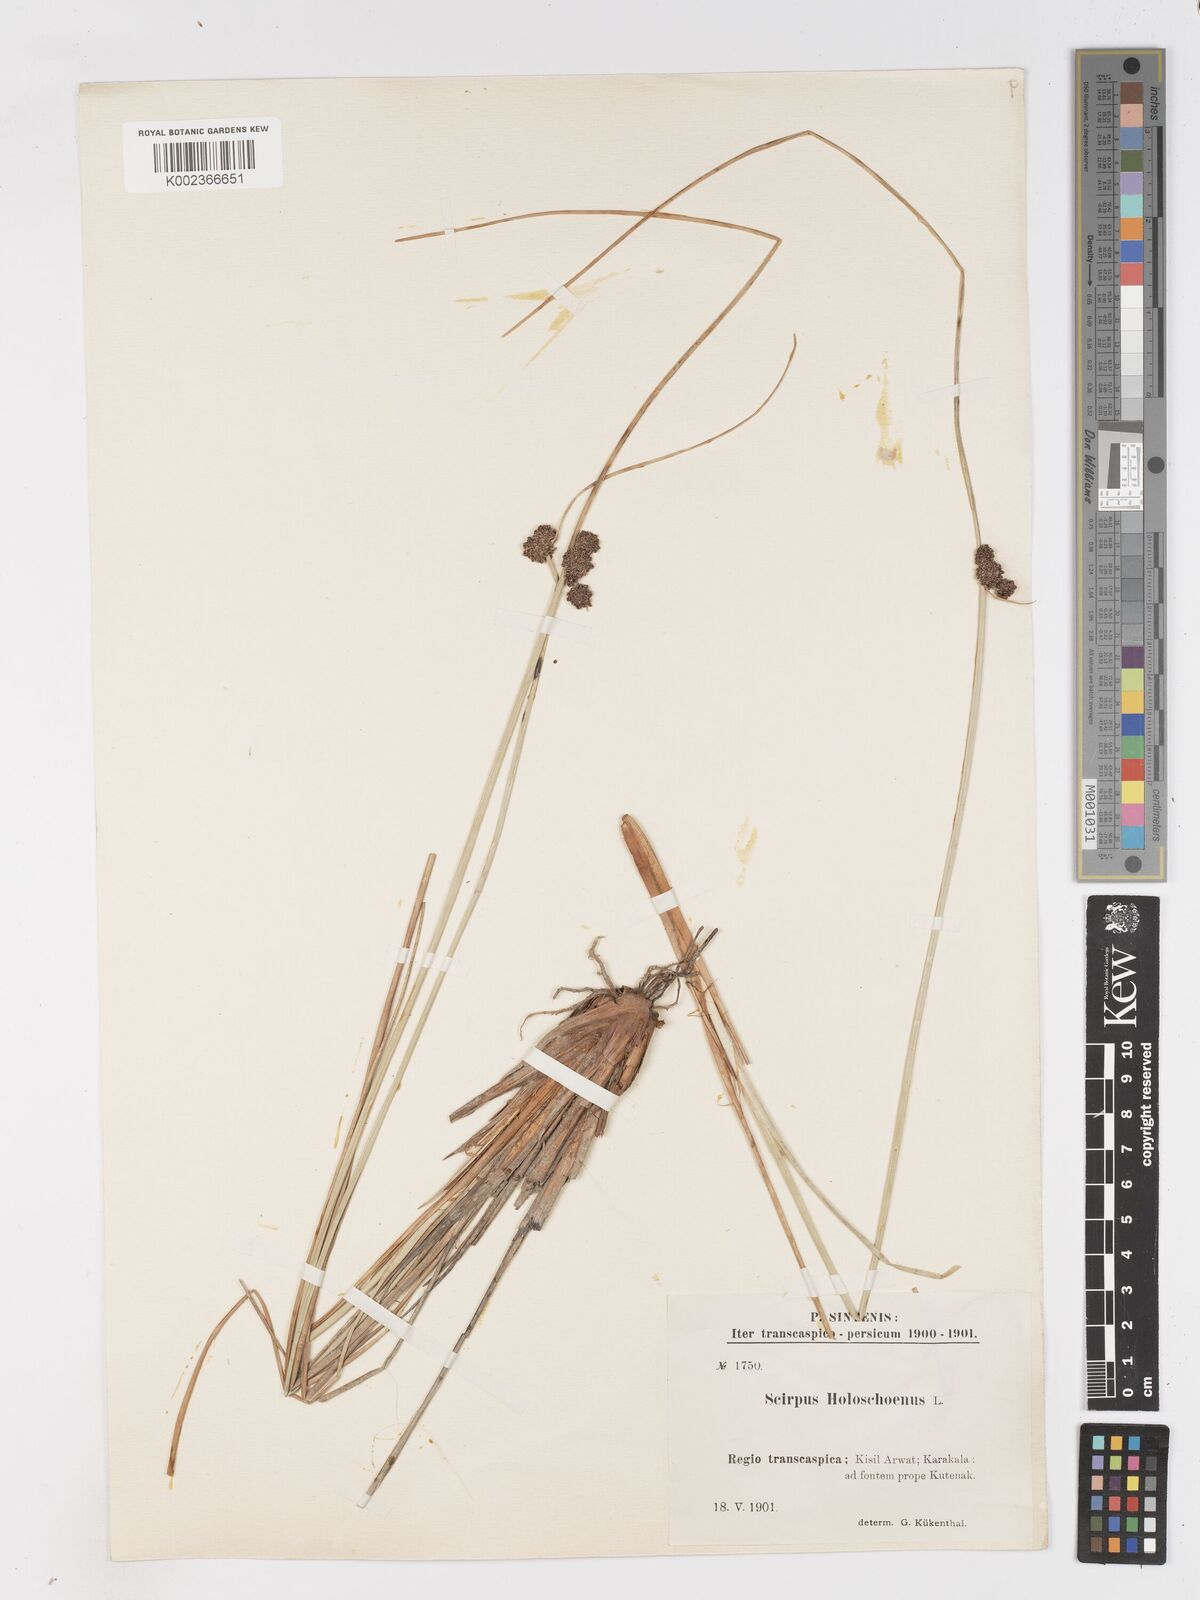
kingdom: Plantae
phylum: Tracheophyta
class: Liliopsida
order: Poales
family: Cyperaceae
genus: Scirpoides
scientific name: Scirpoides holoschoenus
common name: Round-headed club-rush
